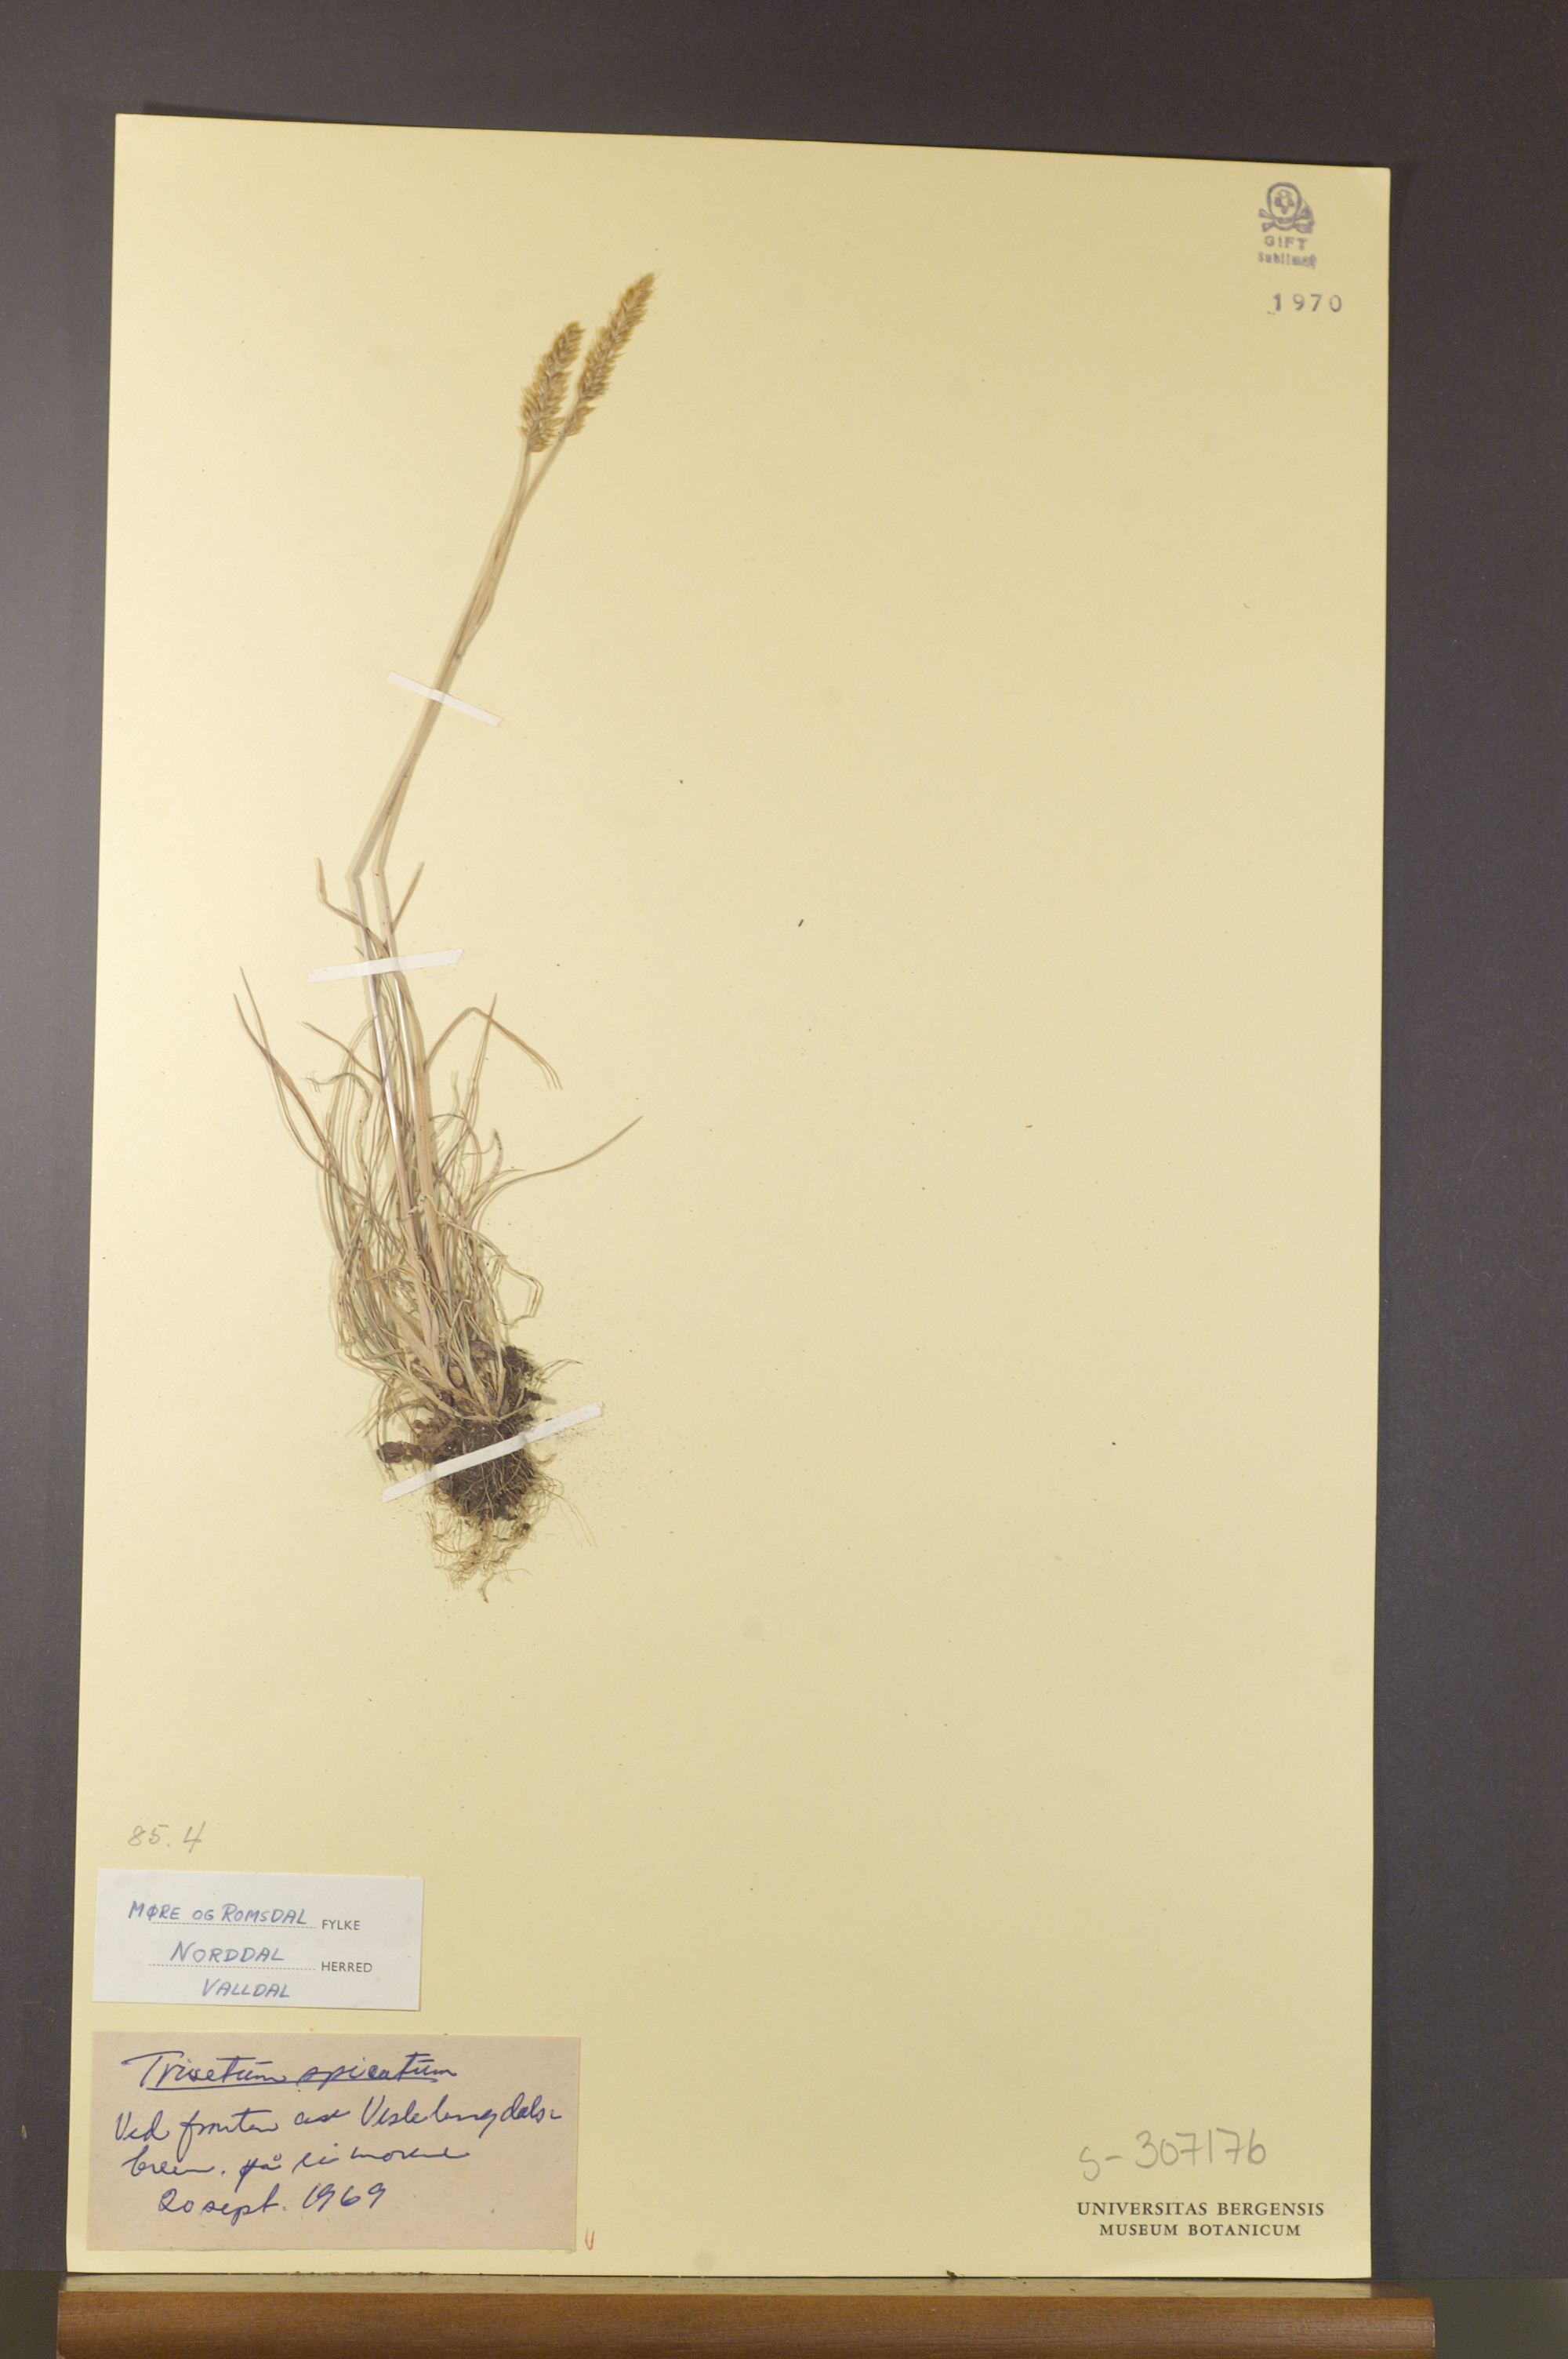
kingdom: Plantae
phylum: Tracheophyta
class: Liliopsida
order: Poales
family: Poaceae
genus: Koeleria
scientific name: Koeleria spicata
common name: Mountain trisetum
